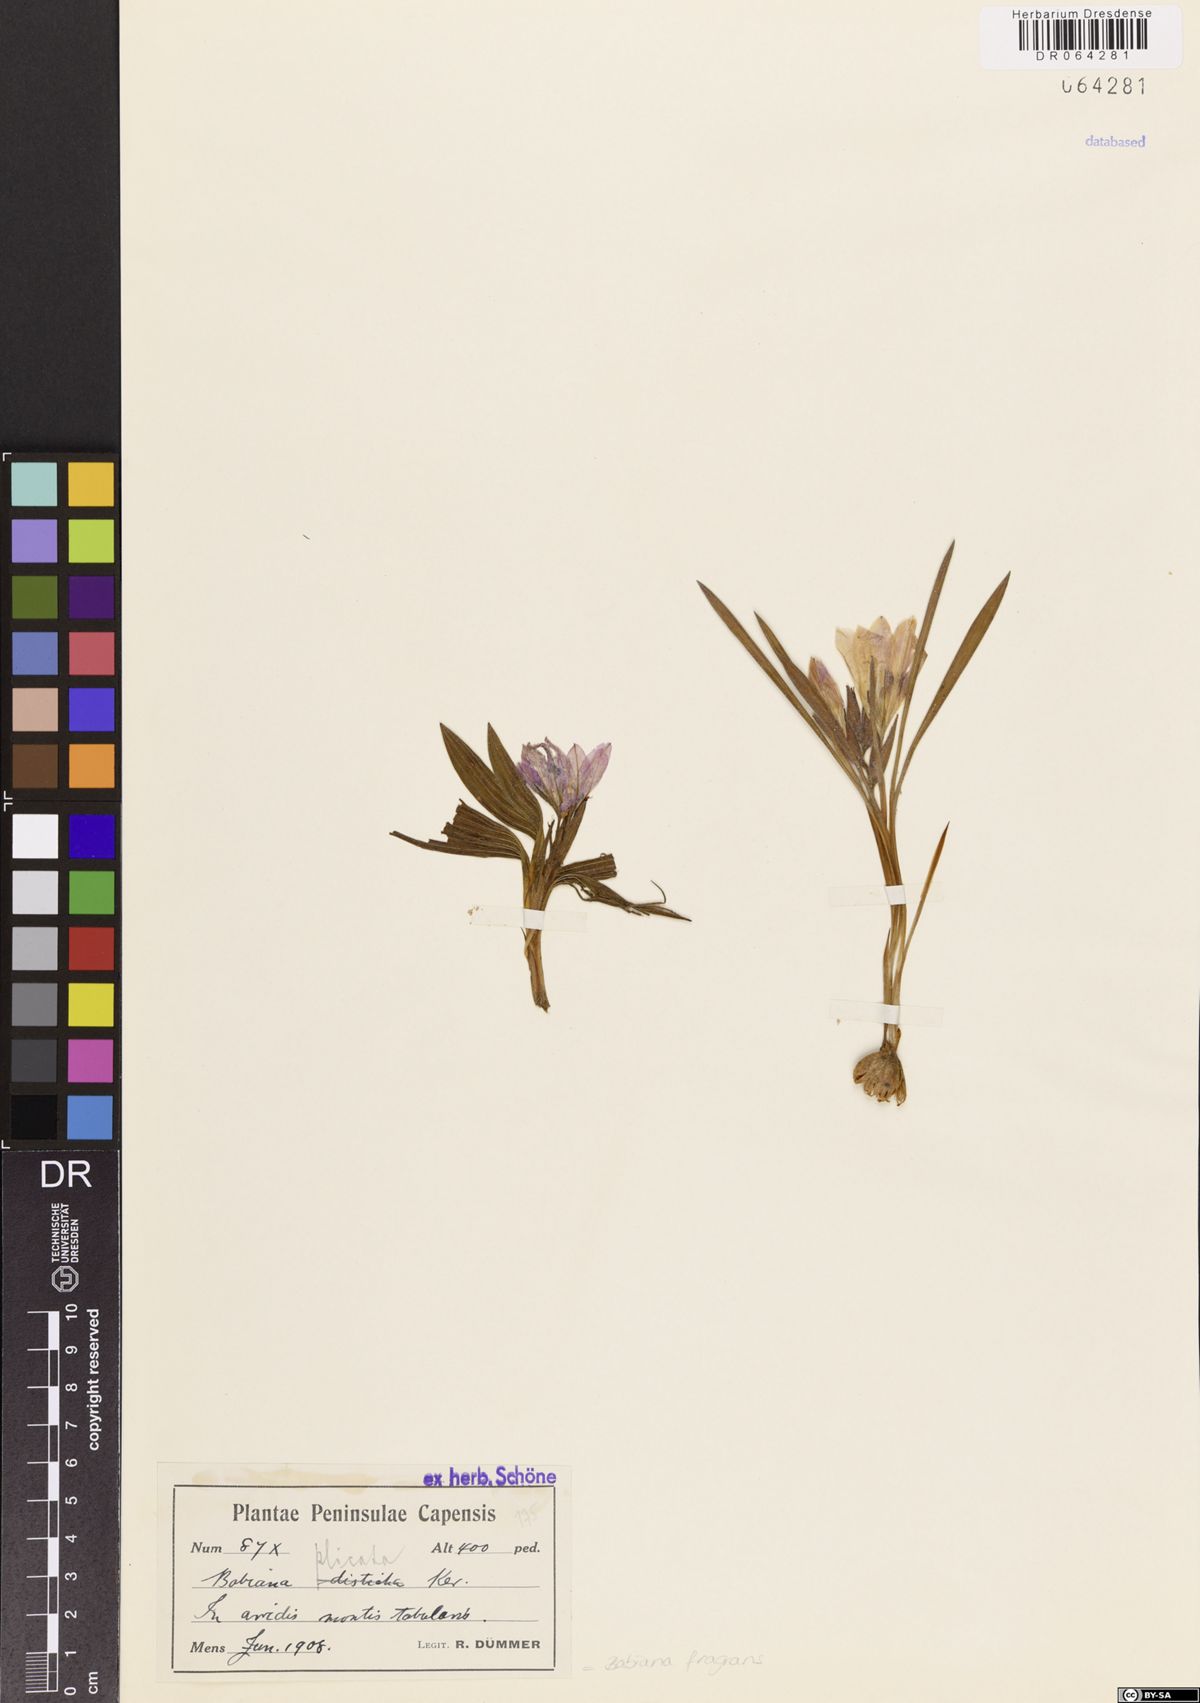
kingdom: Plantae
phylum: Tracheophyta
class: Liliopsida
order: Asparagales
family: Iridaceae
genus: Babiana
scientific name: Babiana fragrans
